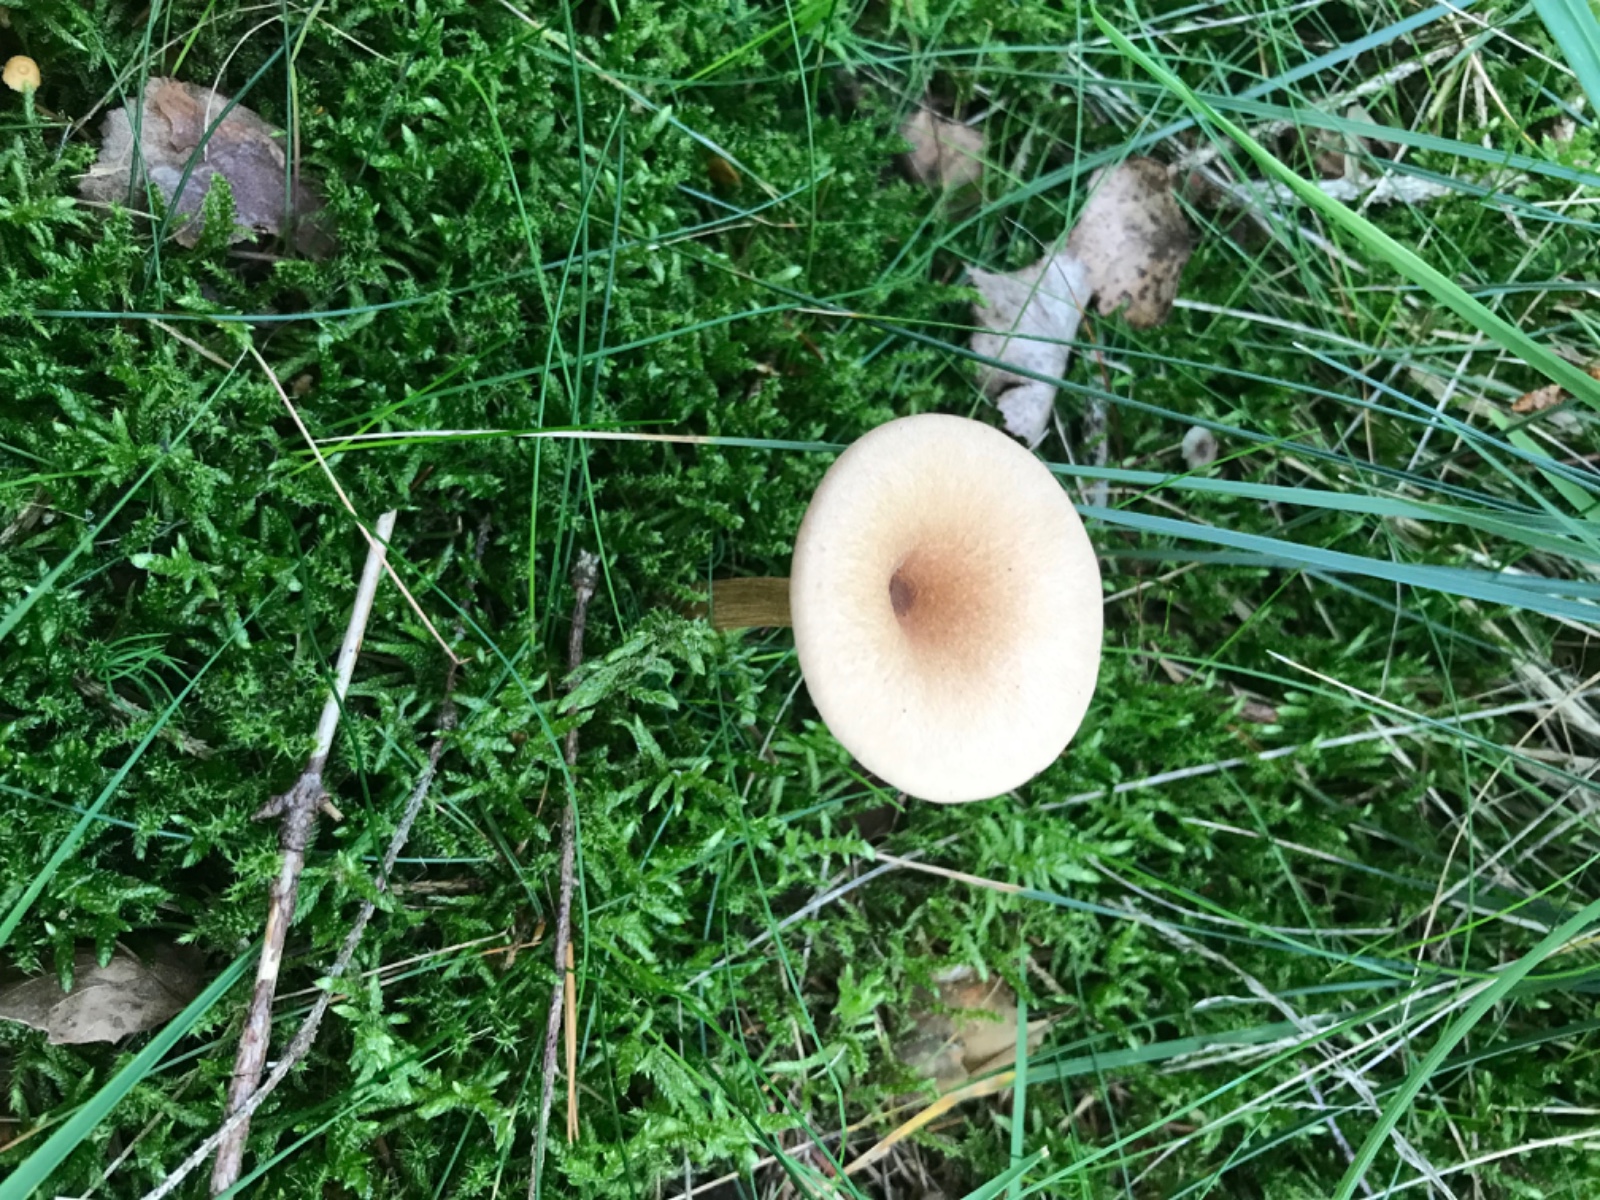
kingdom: Fungi
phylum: Basidiomycota
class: Agaricomycetes
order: Agaricales
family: Tricholomataceae
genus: Infundibulicybe
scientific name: Infundibulicybe
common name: tragthat
